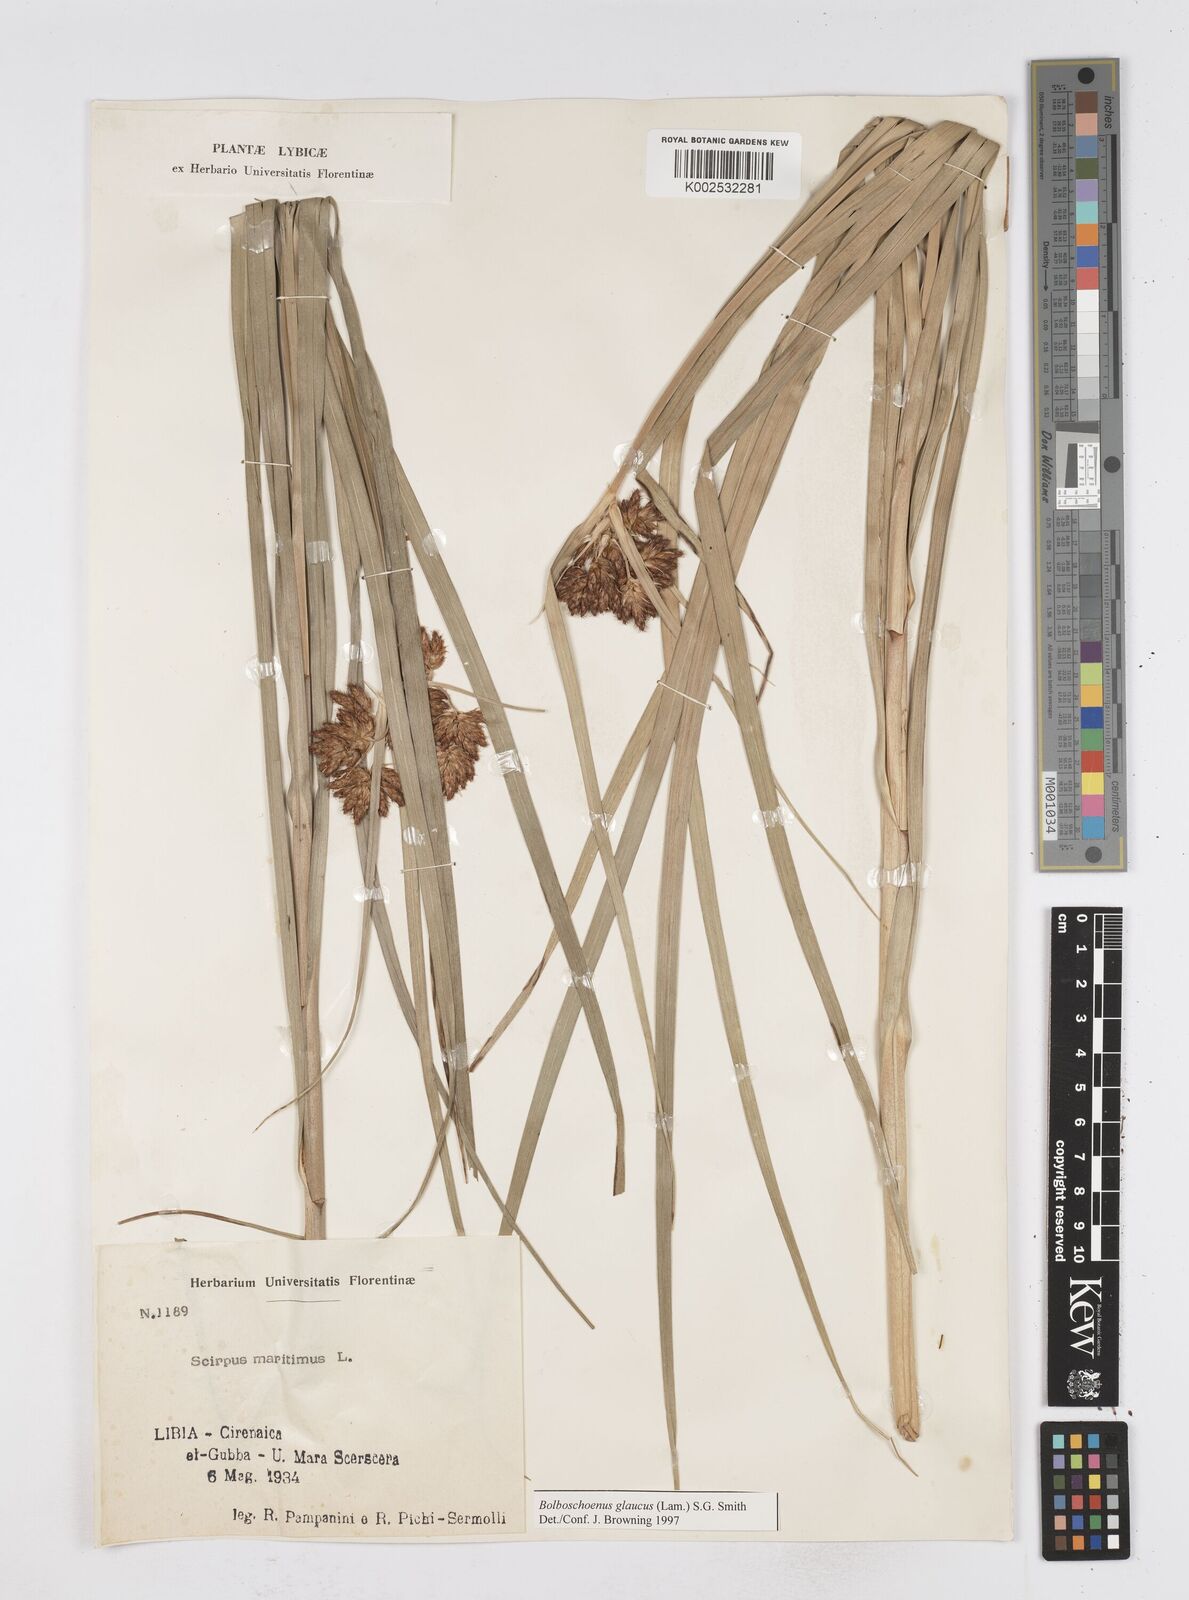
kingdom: Plantae
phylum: Tracheophyta
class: Liliopsida
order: Poales
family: Cyperaceae
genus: Bolboschoenus
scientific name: Bolboschoenus maritimus
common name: Sea club-rush
